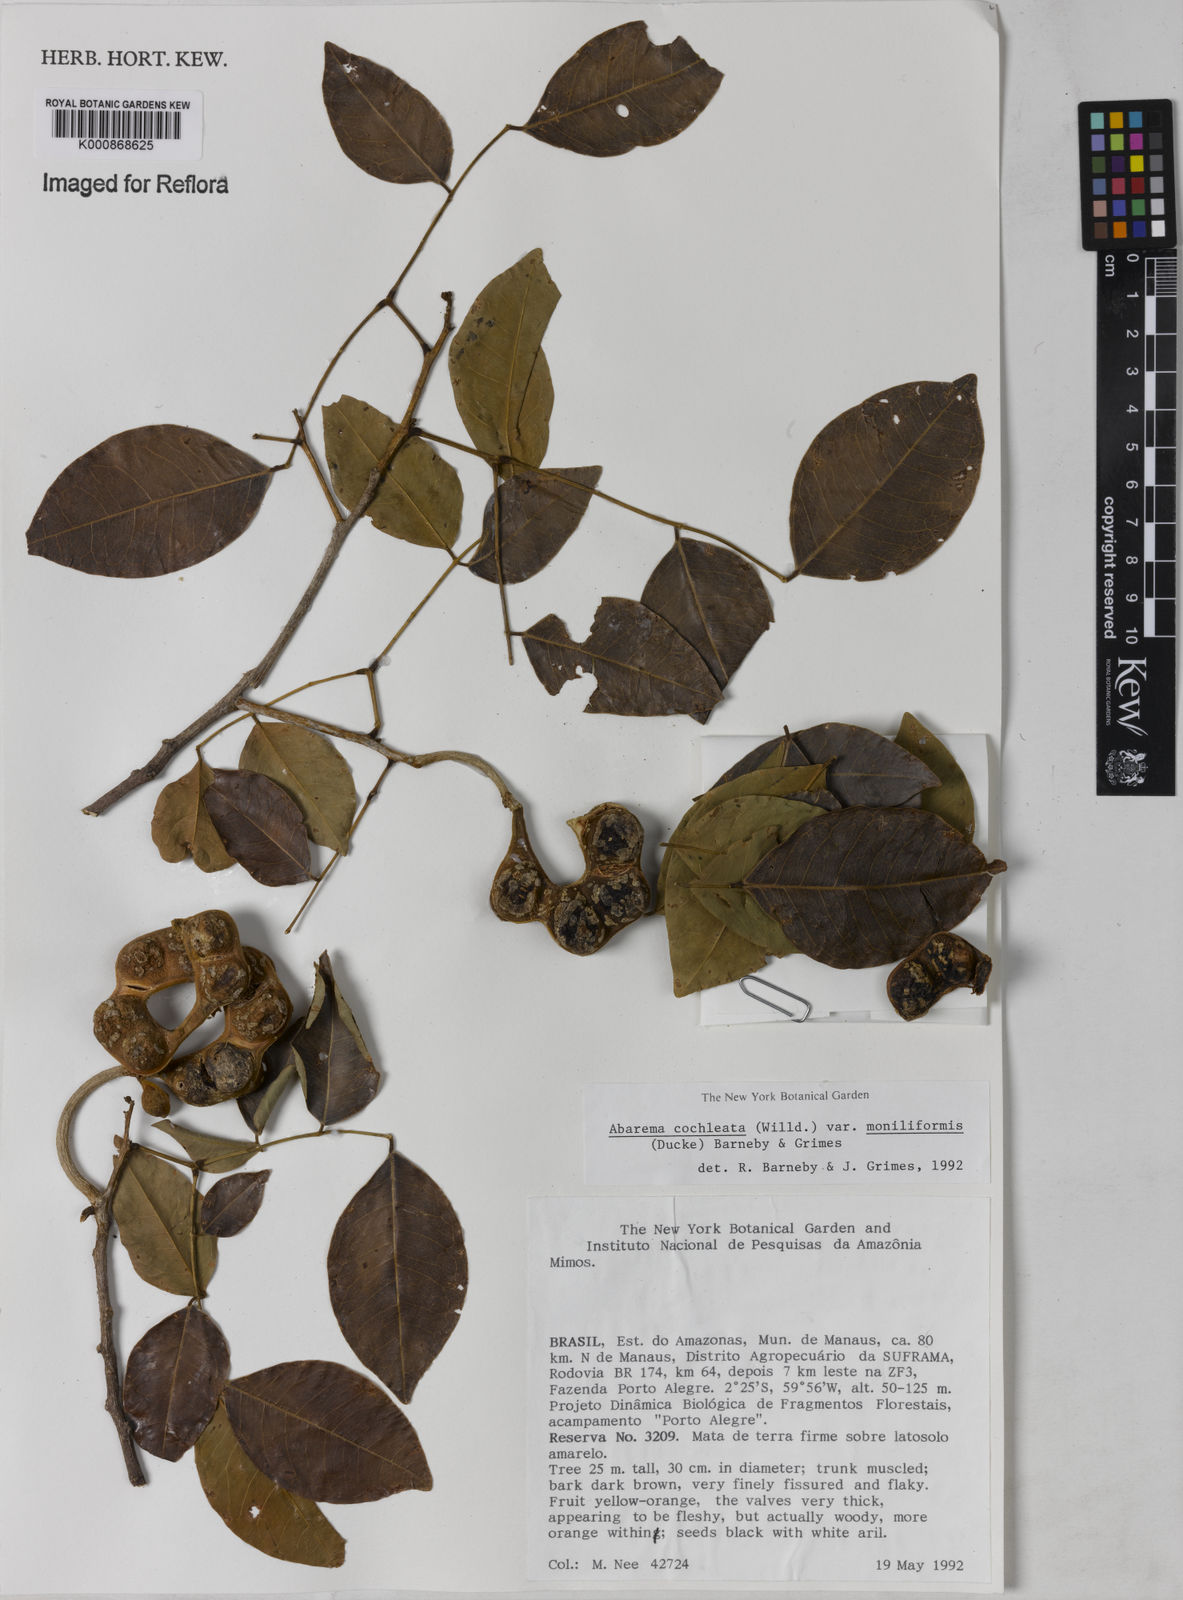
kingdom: Plantae
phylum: Tracheophyta
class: Magnoliopsida
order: Fabales
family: Fabaceae
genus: Jupunba
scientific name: Jupunba cochleata
